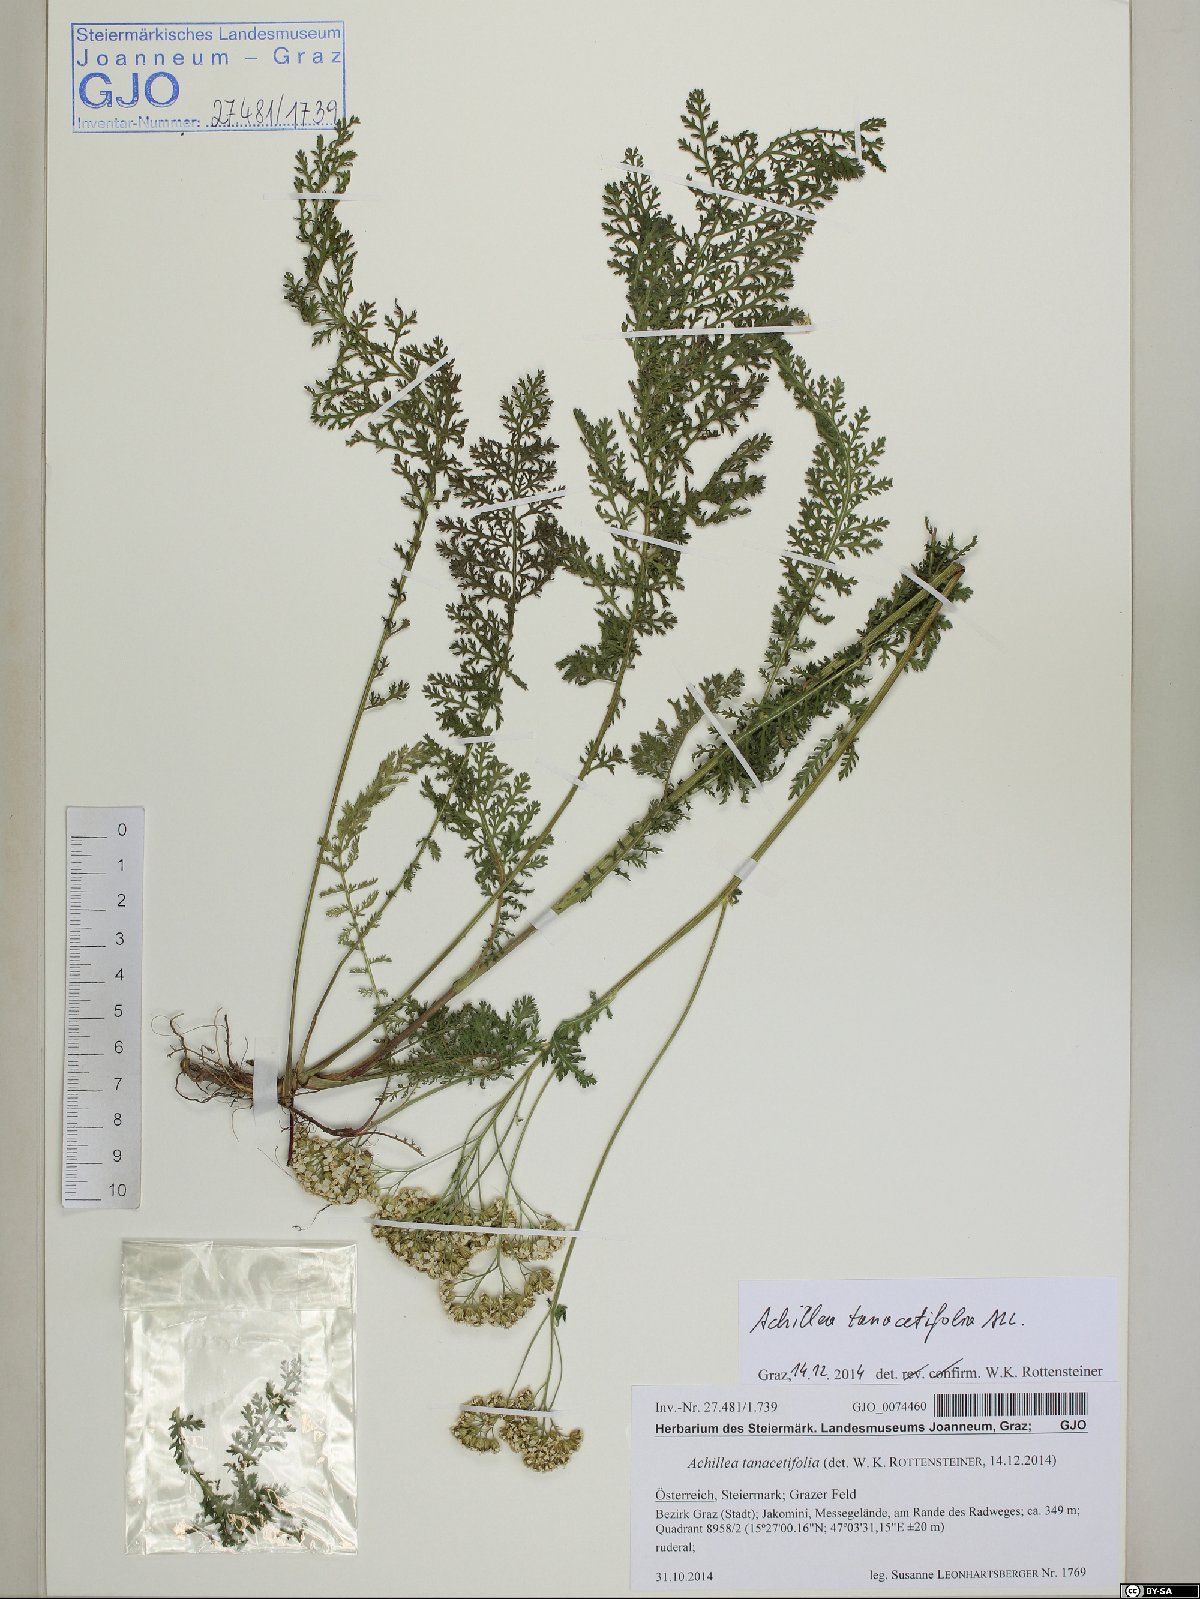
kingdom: Plantae
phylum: Tracheophyta
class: Magnoliopsida
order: Asterales
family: Asteraceae
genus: Achillea
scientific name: Achillea distans
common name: Tall yarrow
